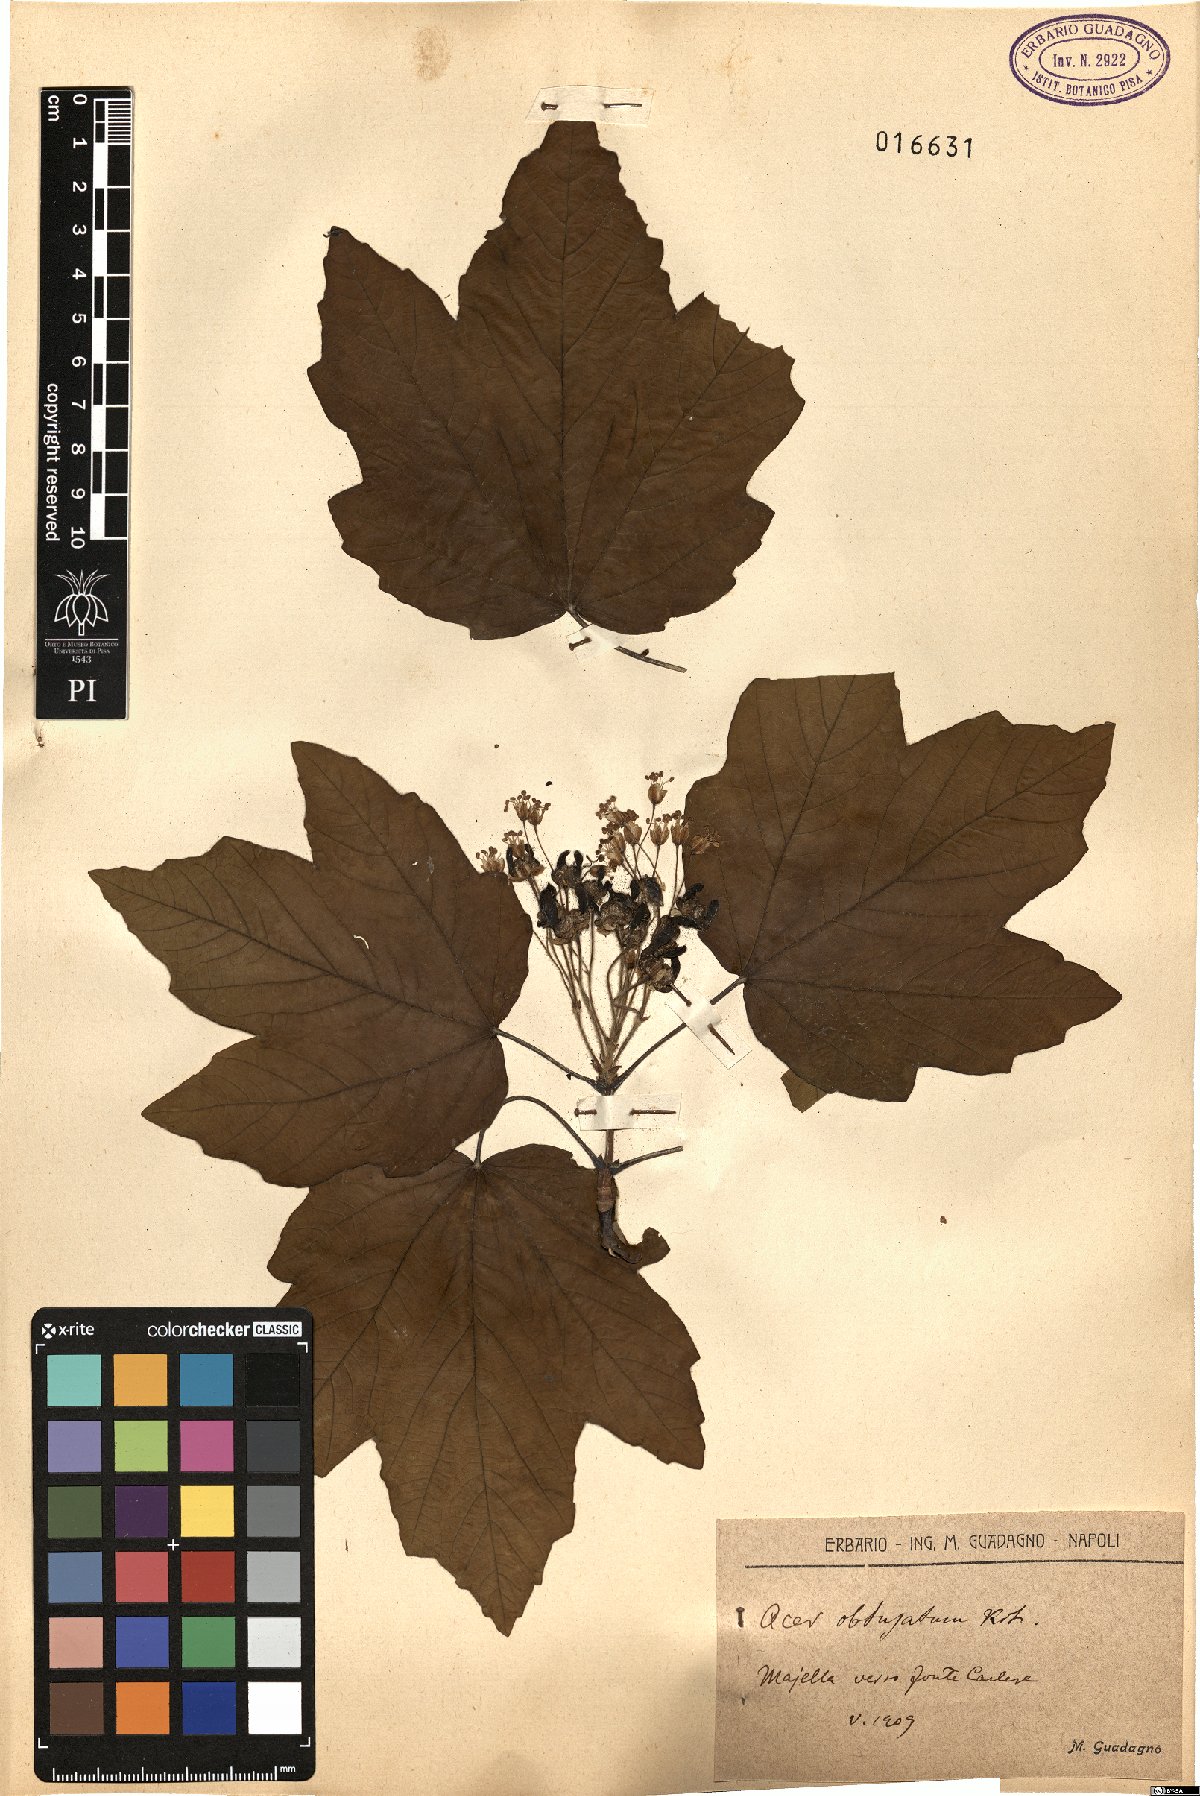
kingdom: Plantae
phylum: Tracheophyta
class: Magnoliopsida
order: Sapindales
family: Sapindaceae
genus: Acer
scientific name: Acer obtusatum
